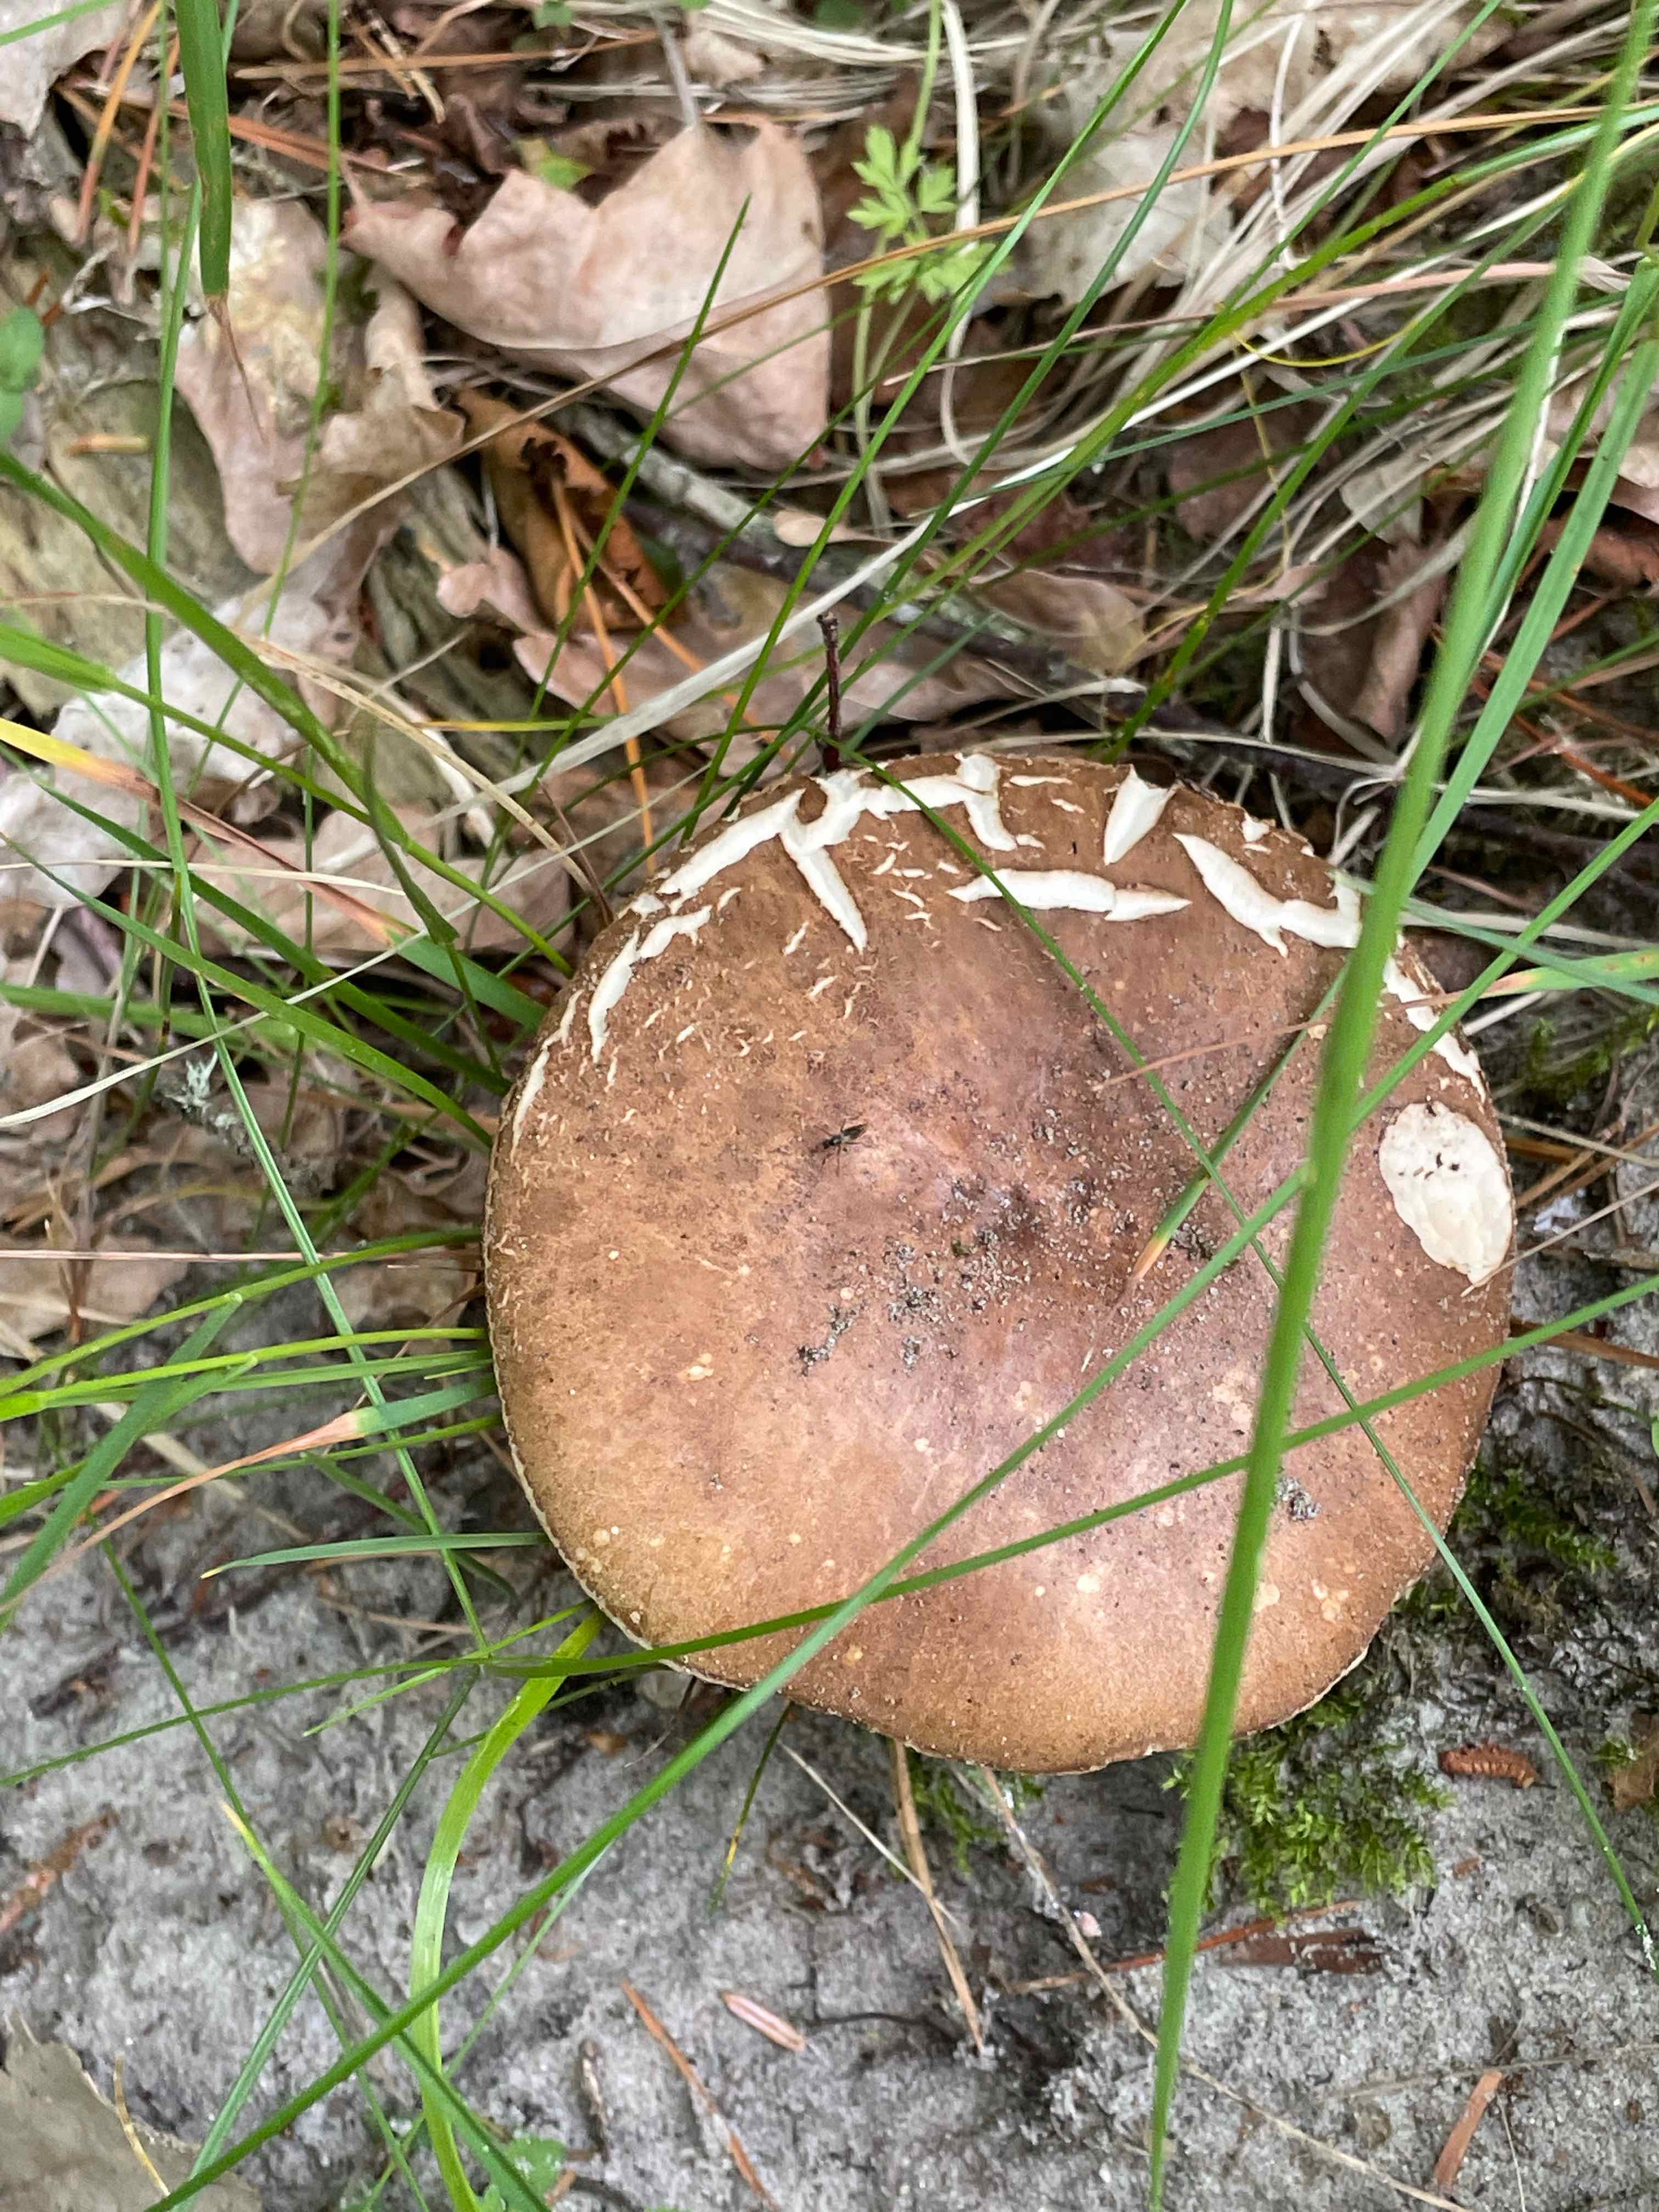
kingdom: Fungi
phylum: Basidiomycota
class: Agaricomycetes
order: Boletales
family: Boletaceae
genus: Leccinum
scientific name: Leccinum scabrum
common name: brun skælrørhat
